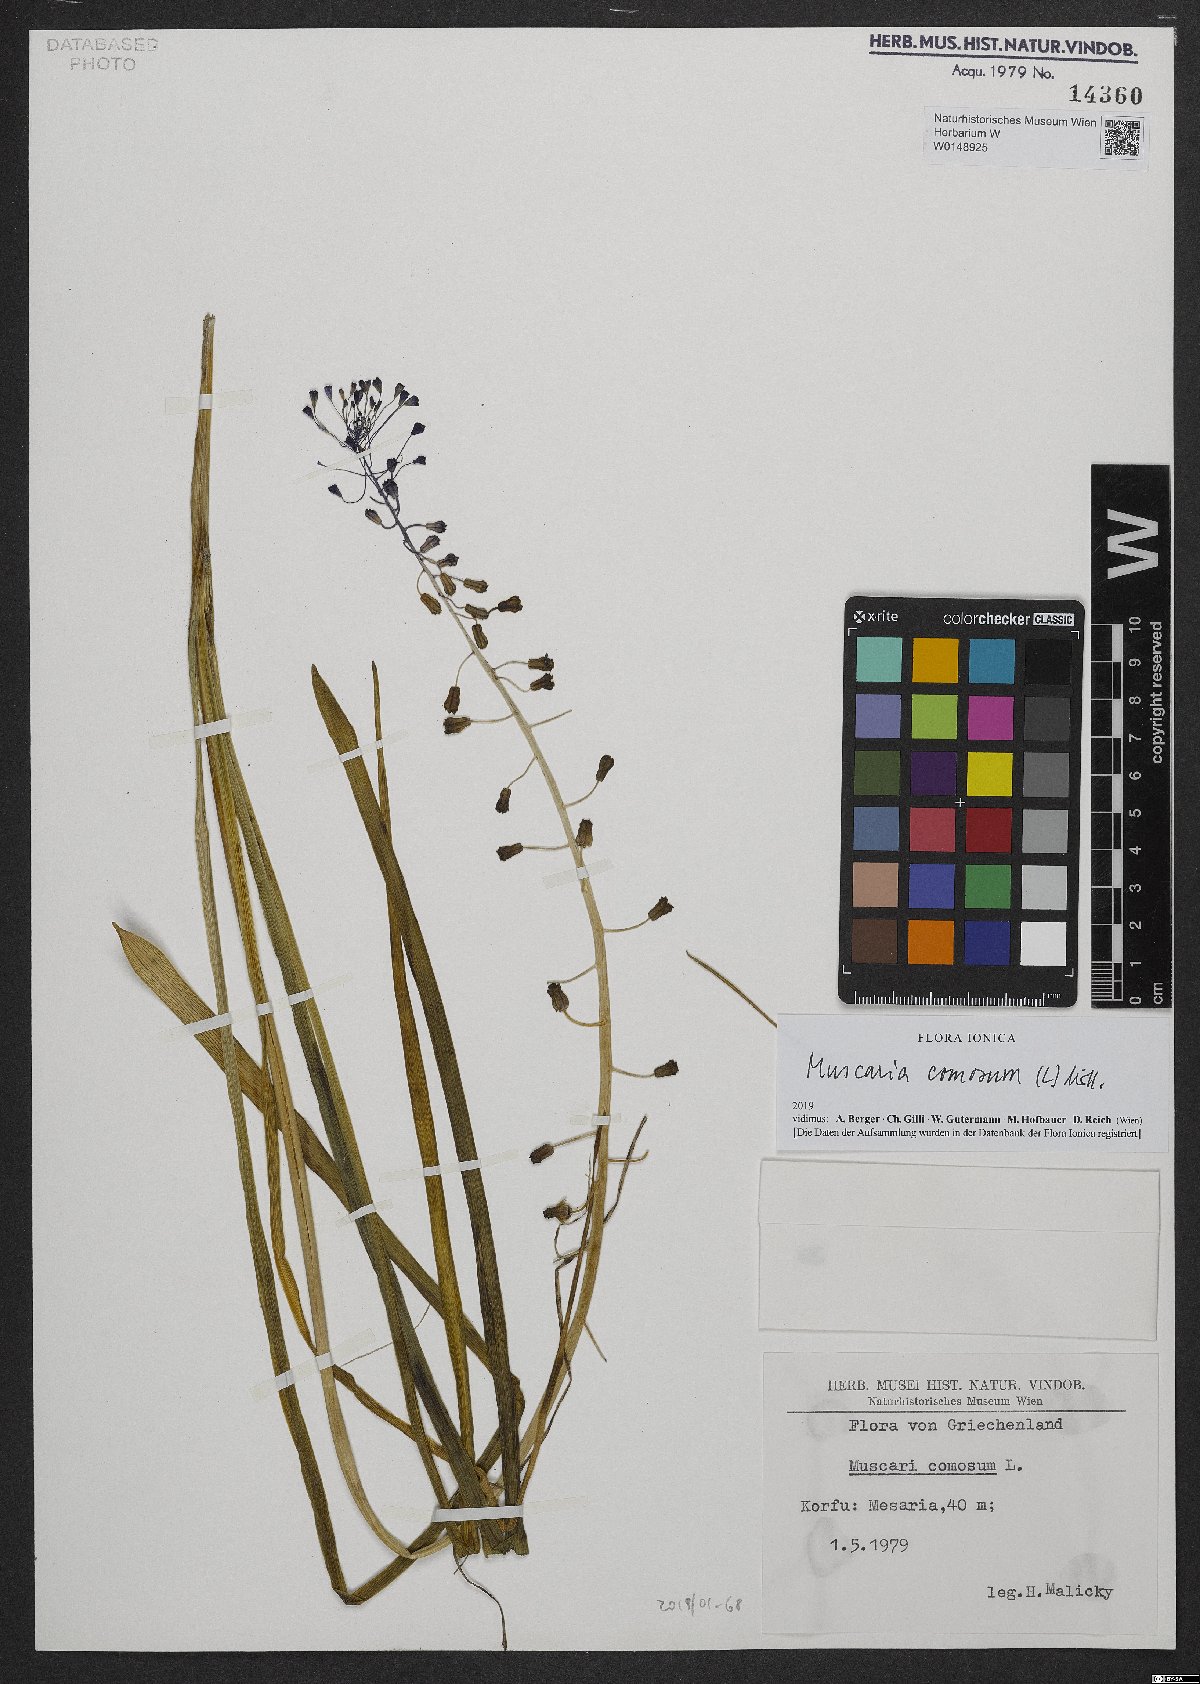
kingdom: Plantae
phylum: Tracheophyta
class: Liliopsida
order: Asparagales
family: Asparagaceae
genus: Muscari
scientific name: Muscari comosum
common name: Tassel hyacinth
